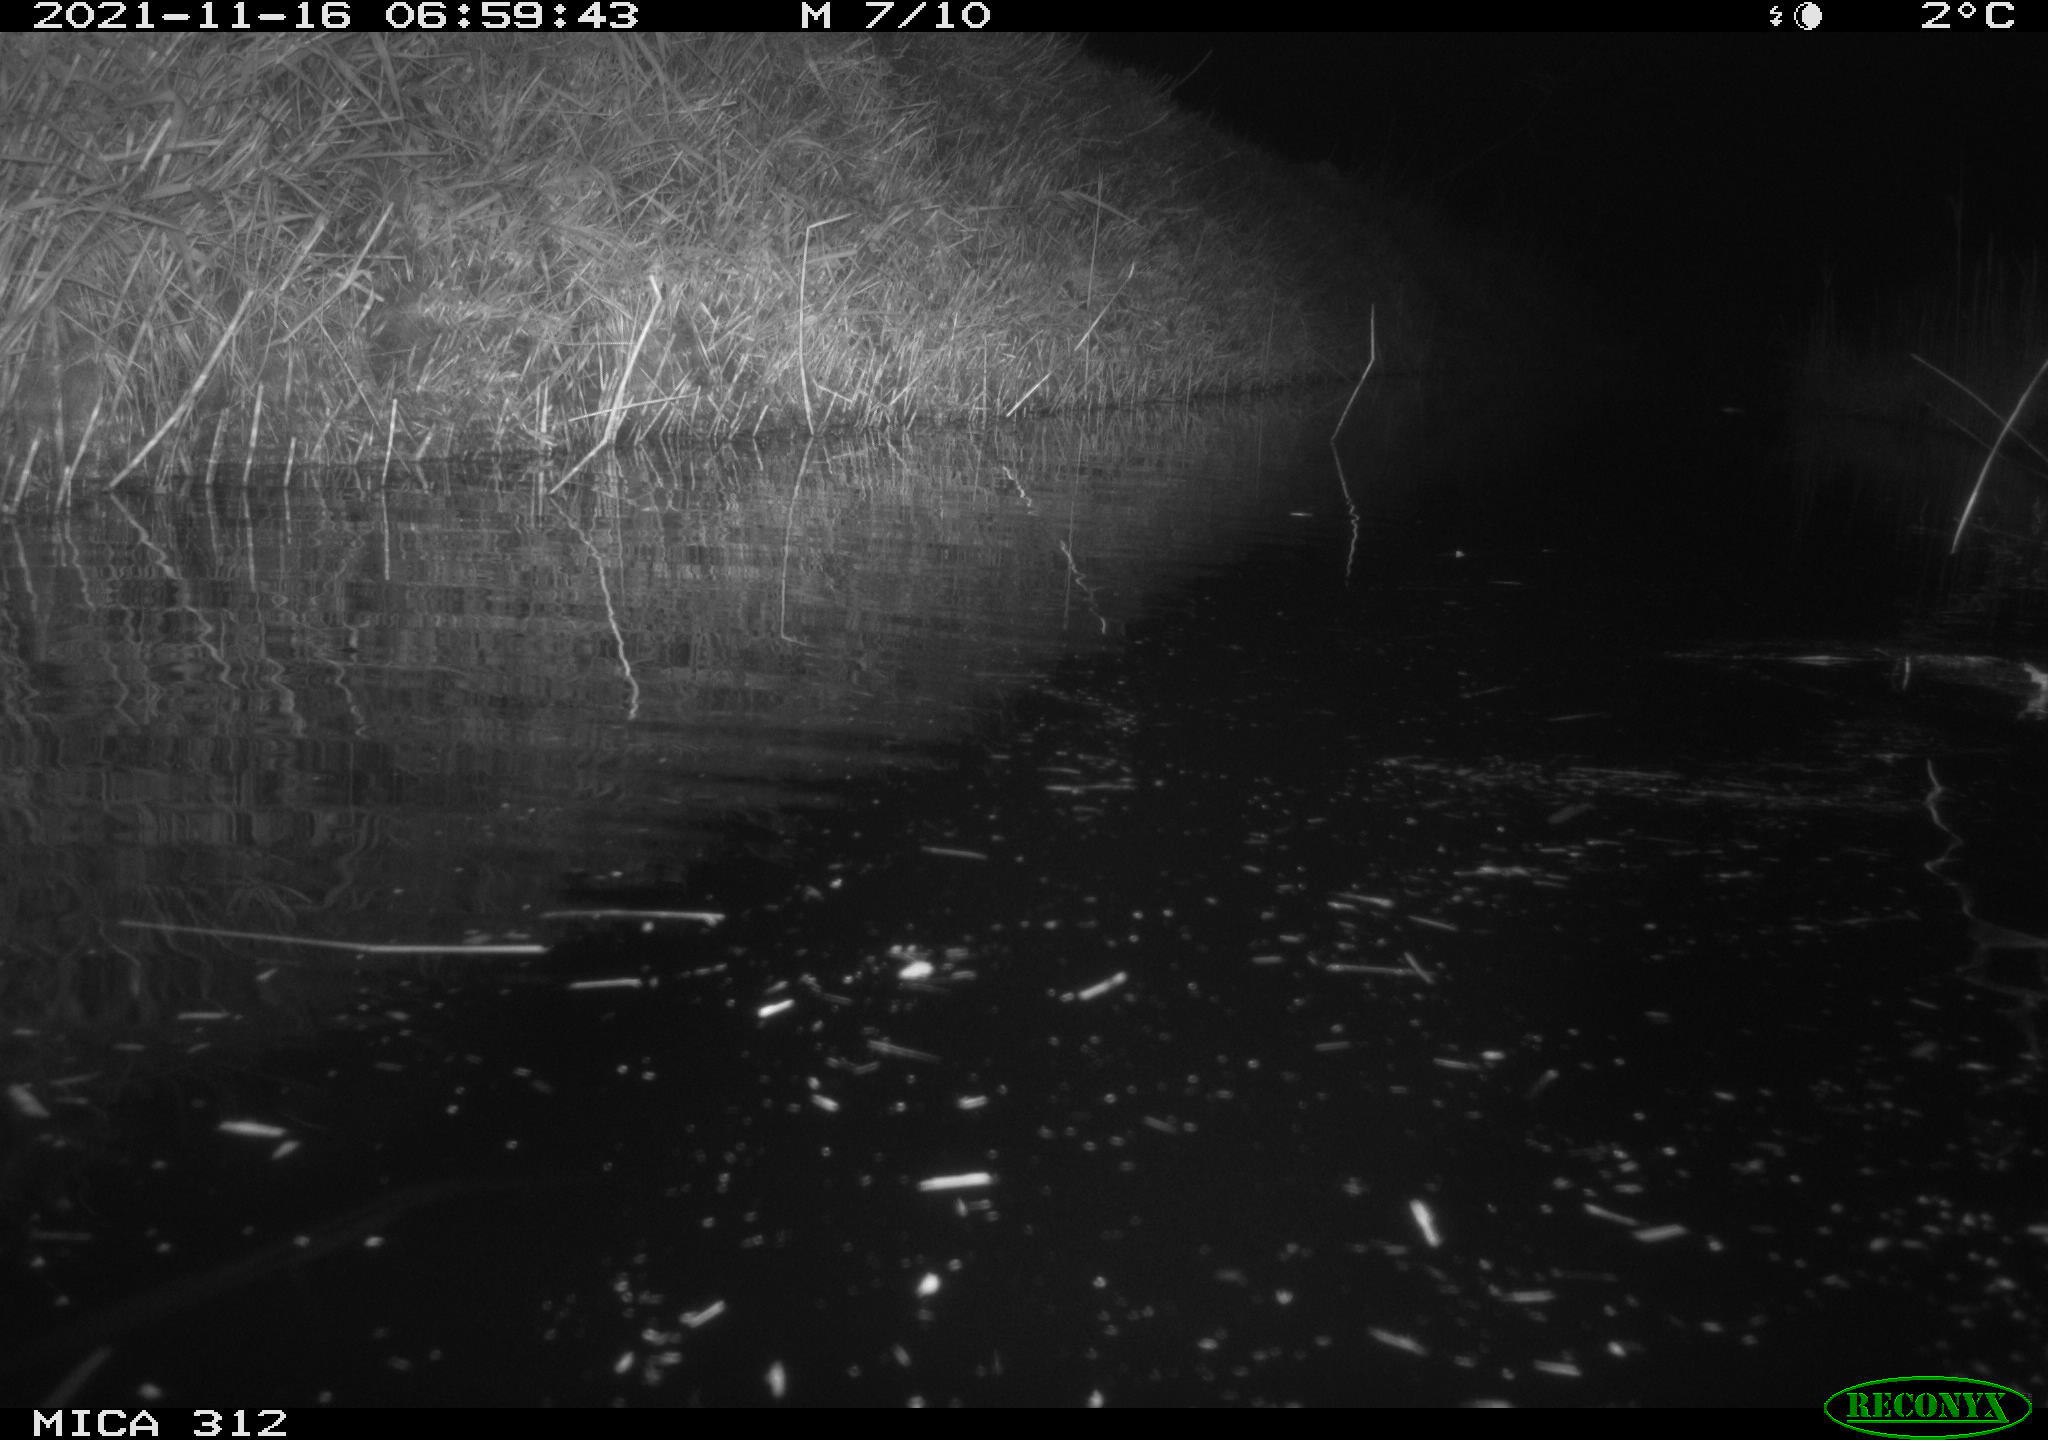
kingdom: Animalia
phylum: Chordata
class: Mammalia
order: Rodentia
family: Muridae
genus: Rattus
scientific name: Rattus norvegicus
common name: Brown rat
